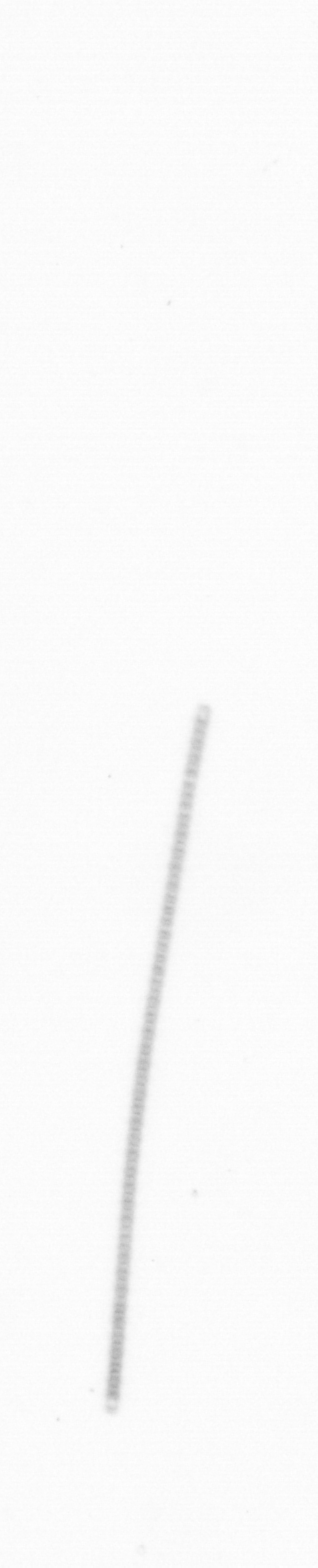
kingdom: Chromista
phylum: Ochrophyta
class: Bacillariophyceae
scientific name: Bacillariophyceae
